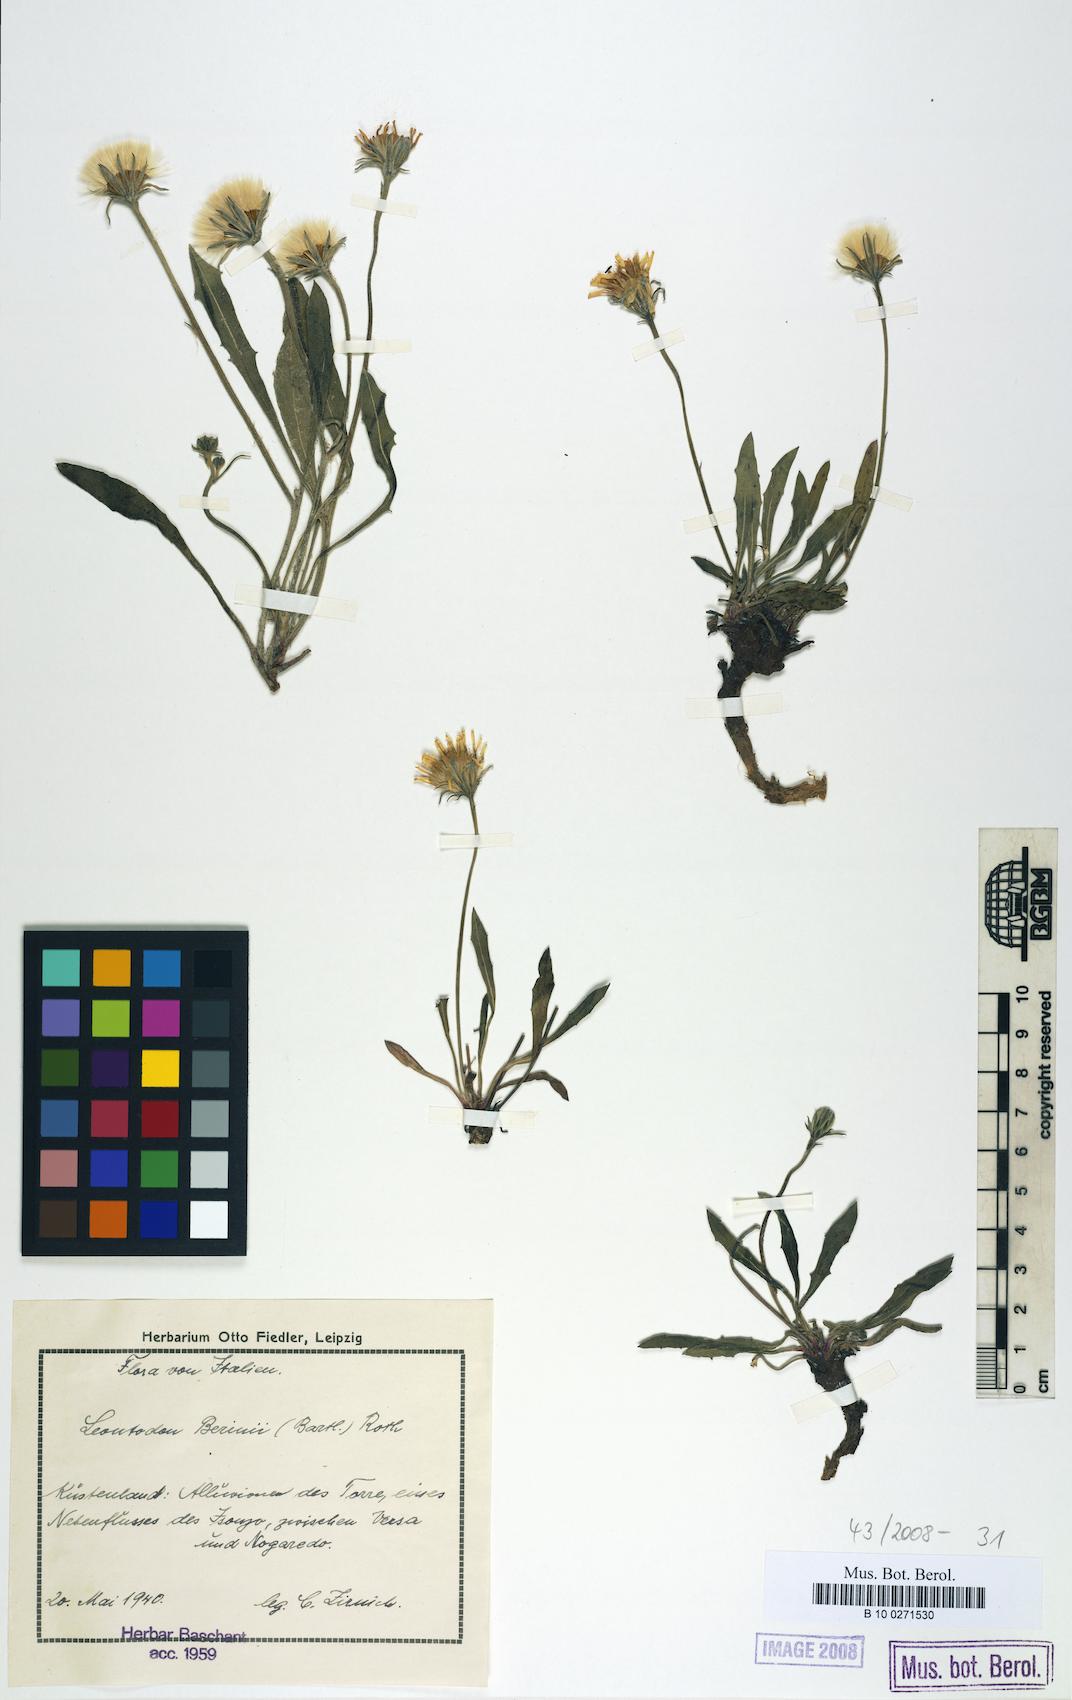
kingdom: Plantae
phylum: Tracheophyta
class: Magnoliopsida
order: Asterales
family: Asteraceae
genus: Leontodon
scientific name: Leontodon berinii
